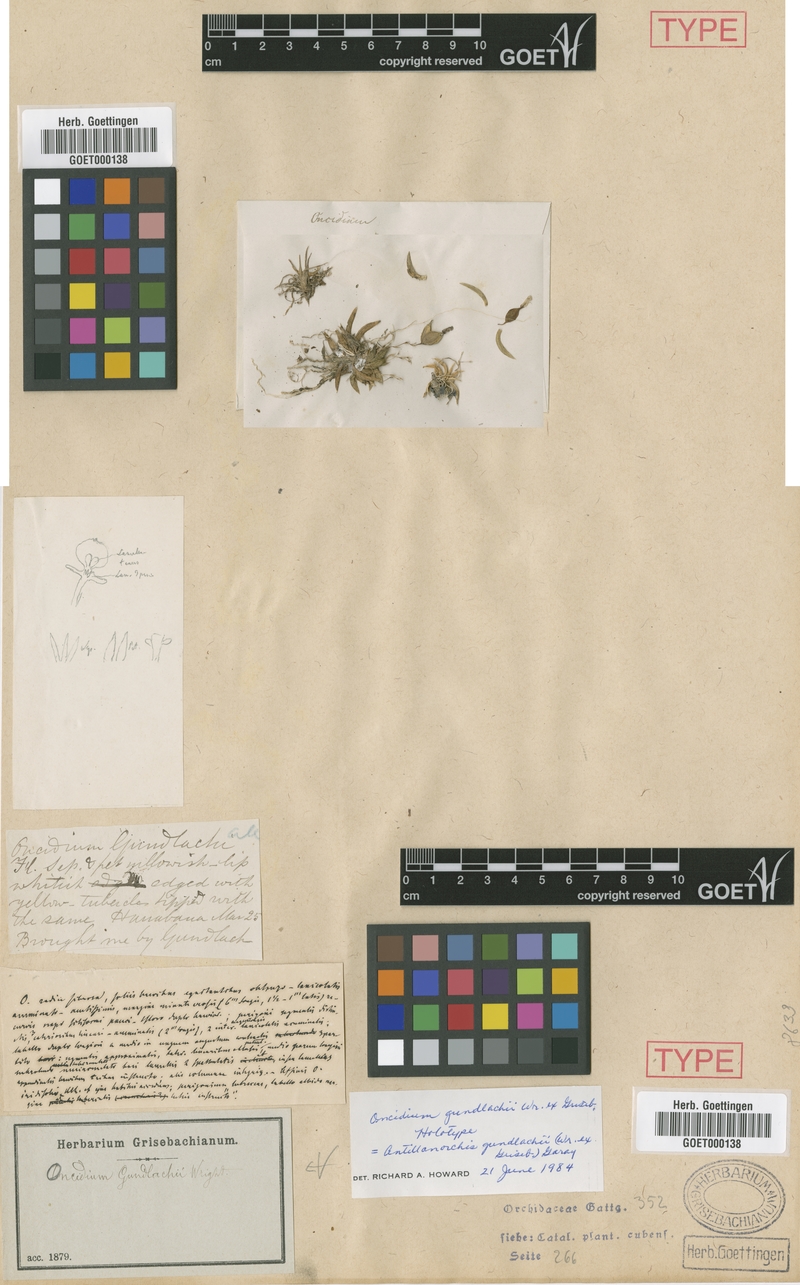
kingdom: Plantae
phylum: Tracheophyta
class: Liliopsida
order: Asparagales
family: Orchidaceae
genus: Tolumnia
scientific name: Tolumnia gundlachii
